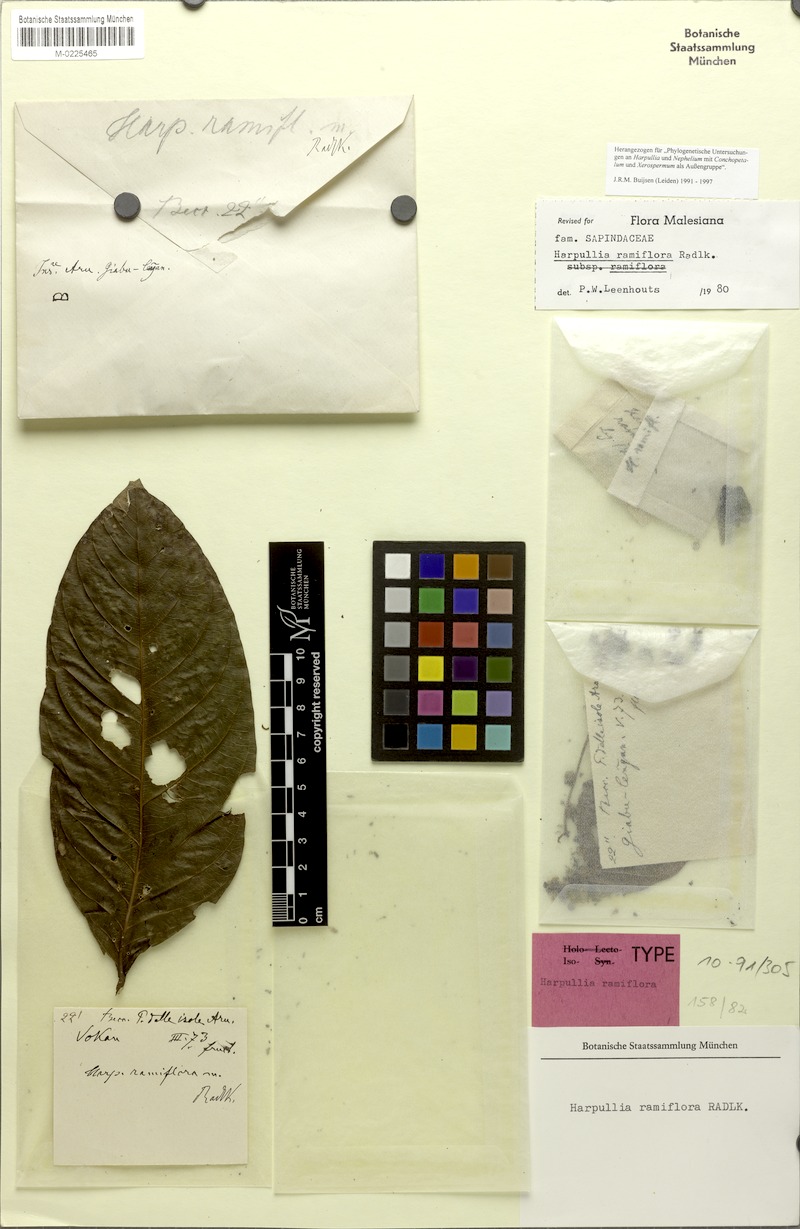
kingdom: Plantae
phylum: Tracheophyta
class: Magnoliopsida
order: Sapindales
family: Sapindaceae
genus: Harpullia
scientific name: Harpullia ramiflora
